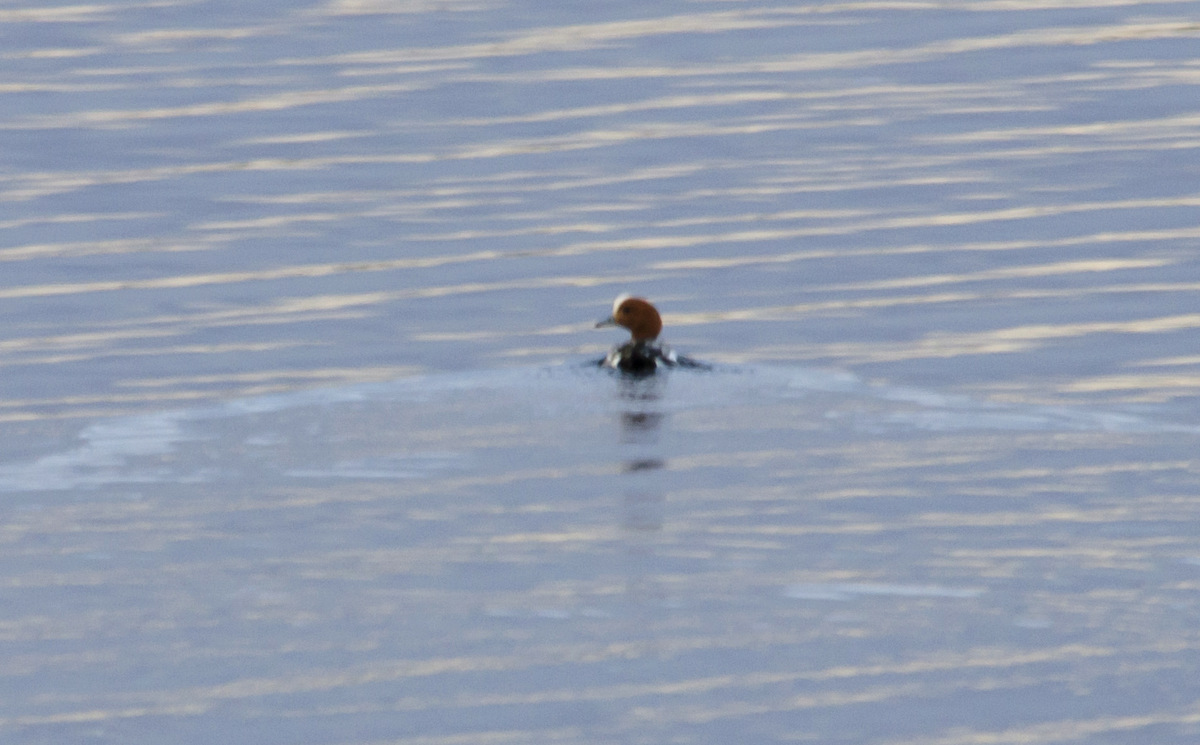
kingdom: Animalia
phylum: Chordata
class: Aves
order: Anseriformes
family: Anatidae
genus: Mareca
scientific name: Mareca penelope
